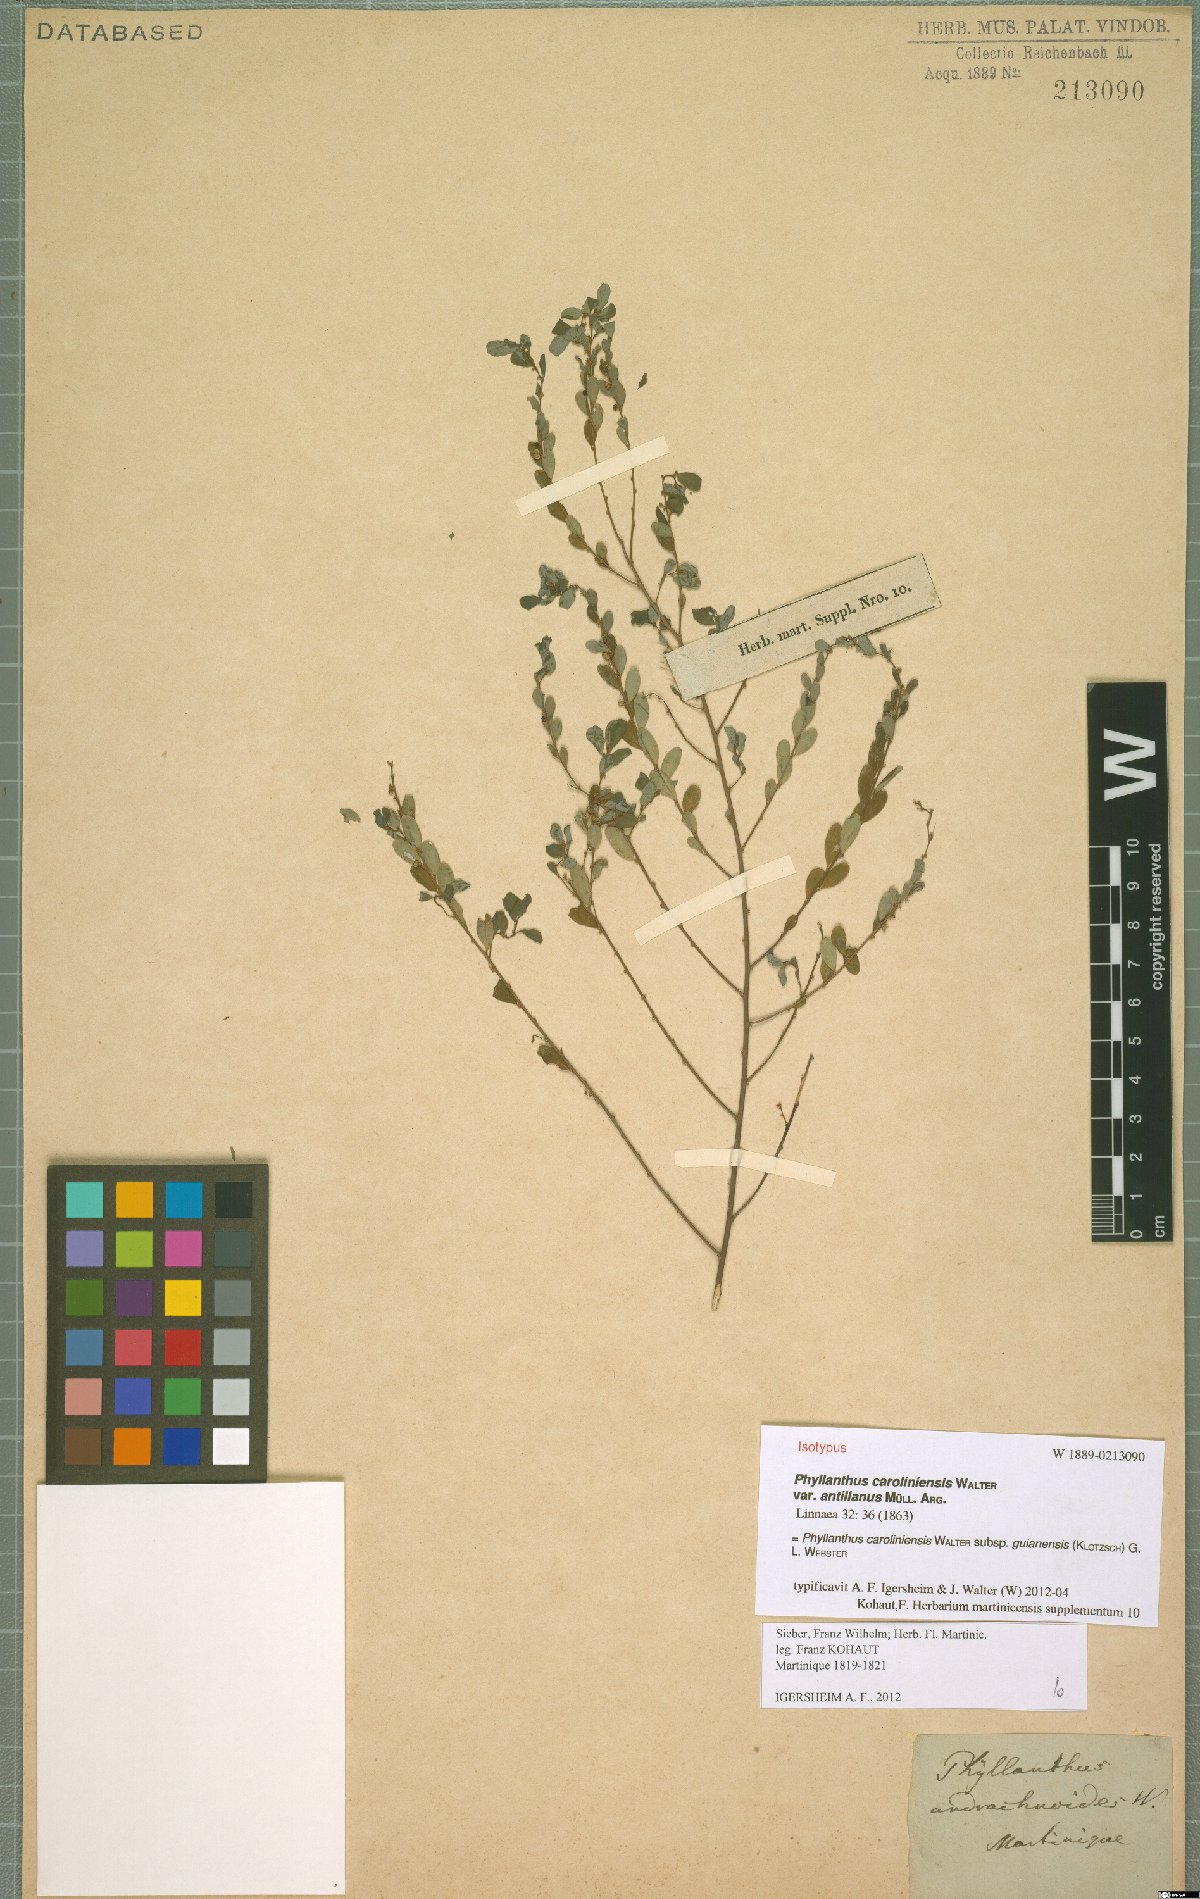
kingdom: Plantae
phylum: Tracheophyta
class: Magnoliopsida
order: Malpighiales
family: Phyllanthaceae
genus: Phyllanthus
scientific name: Phyllanthus caroliniensis
